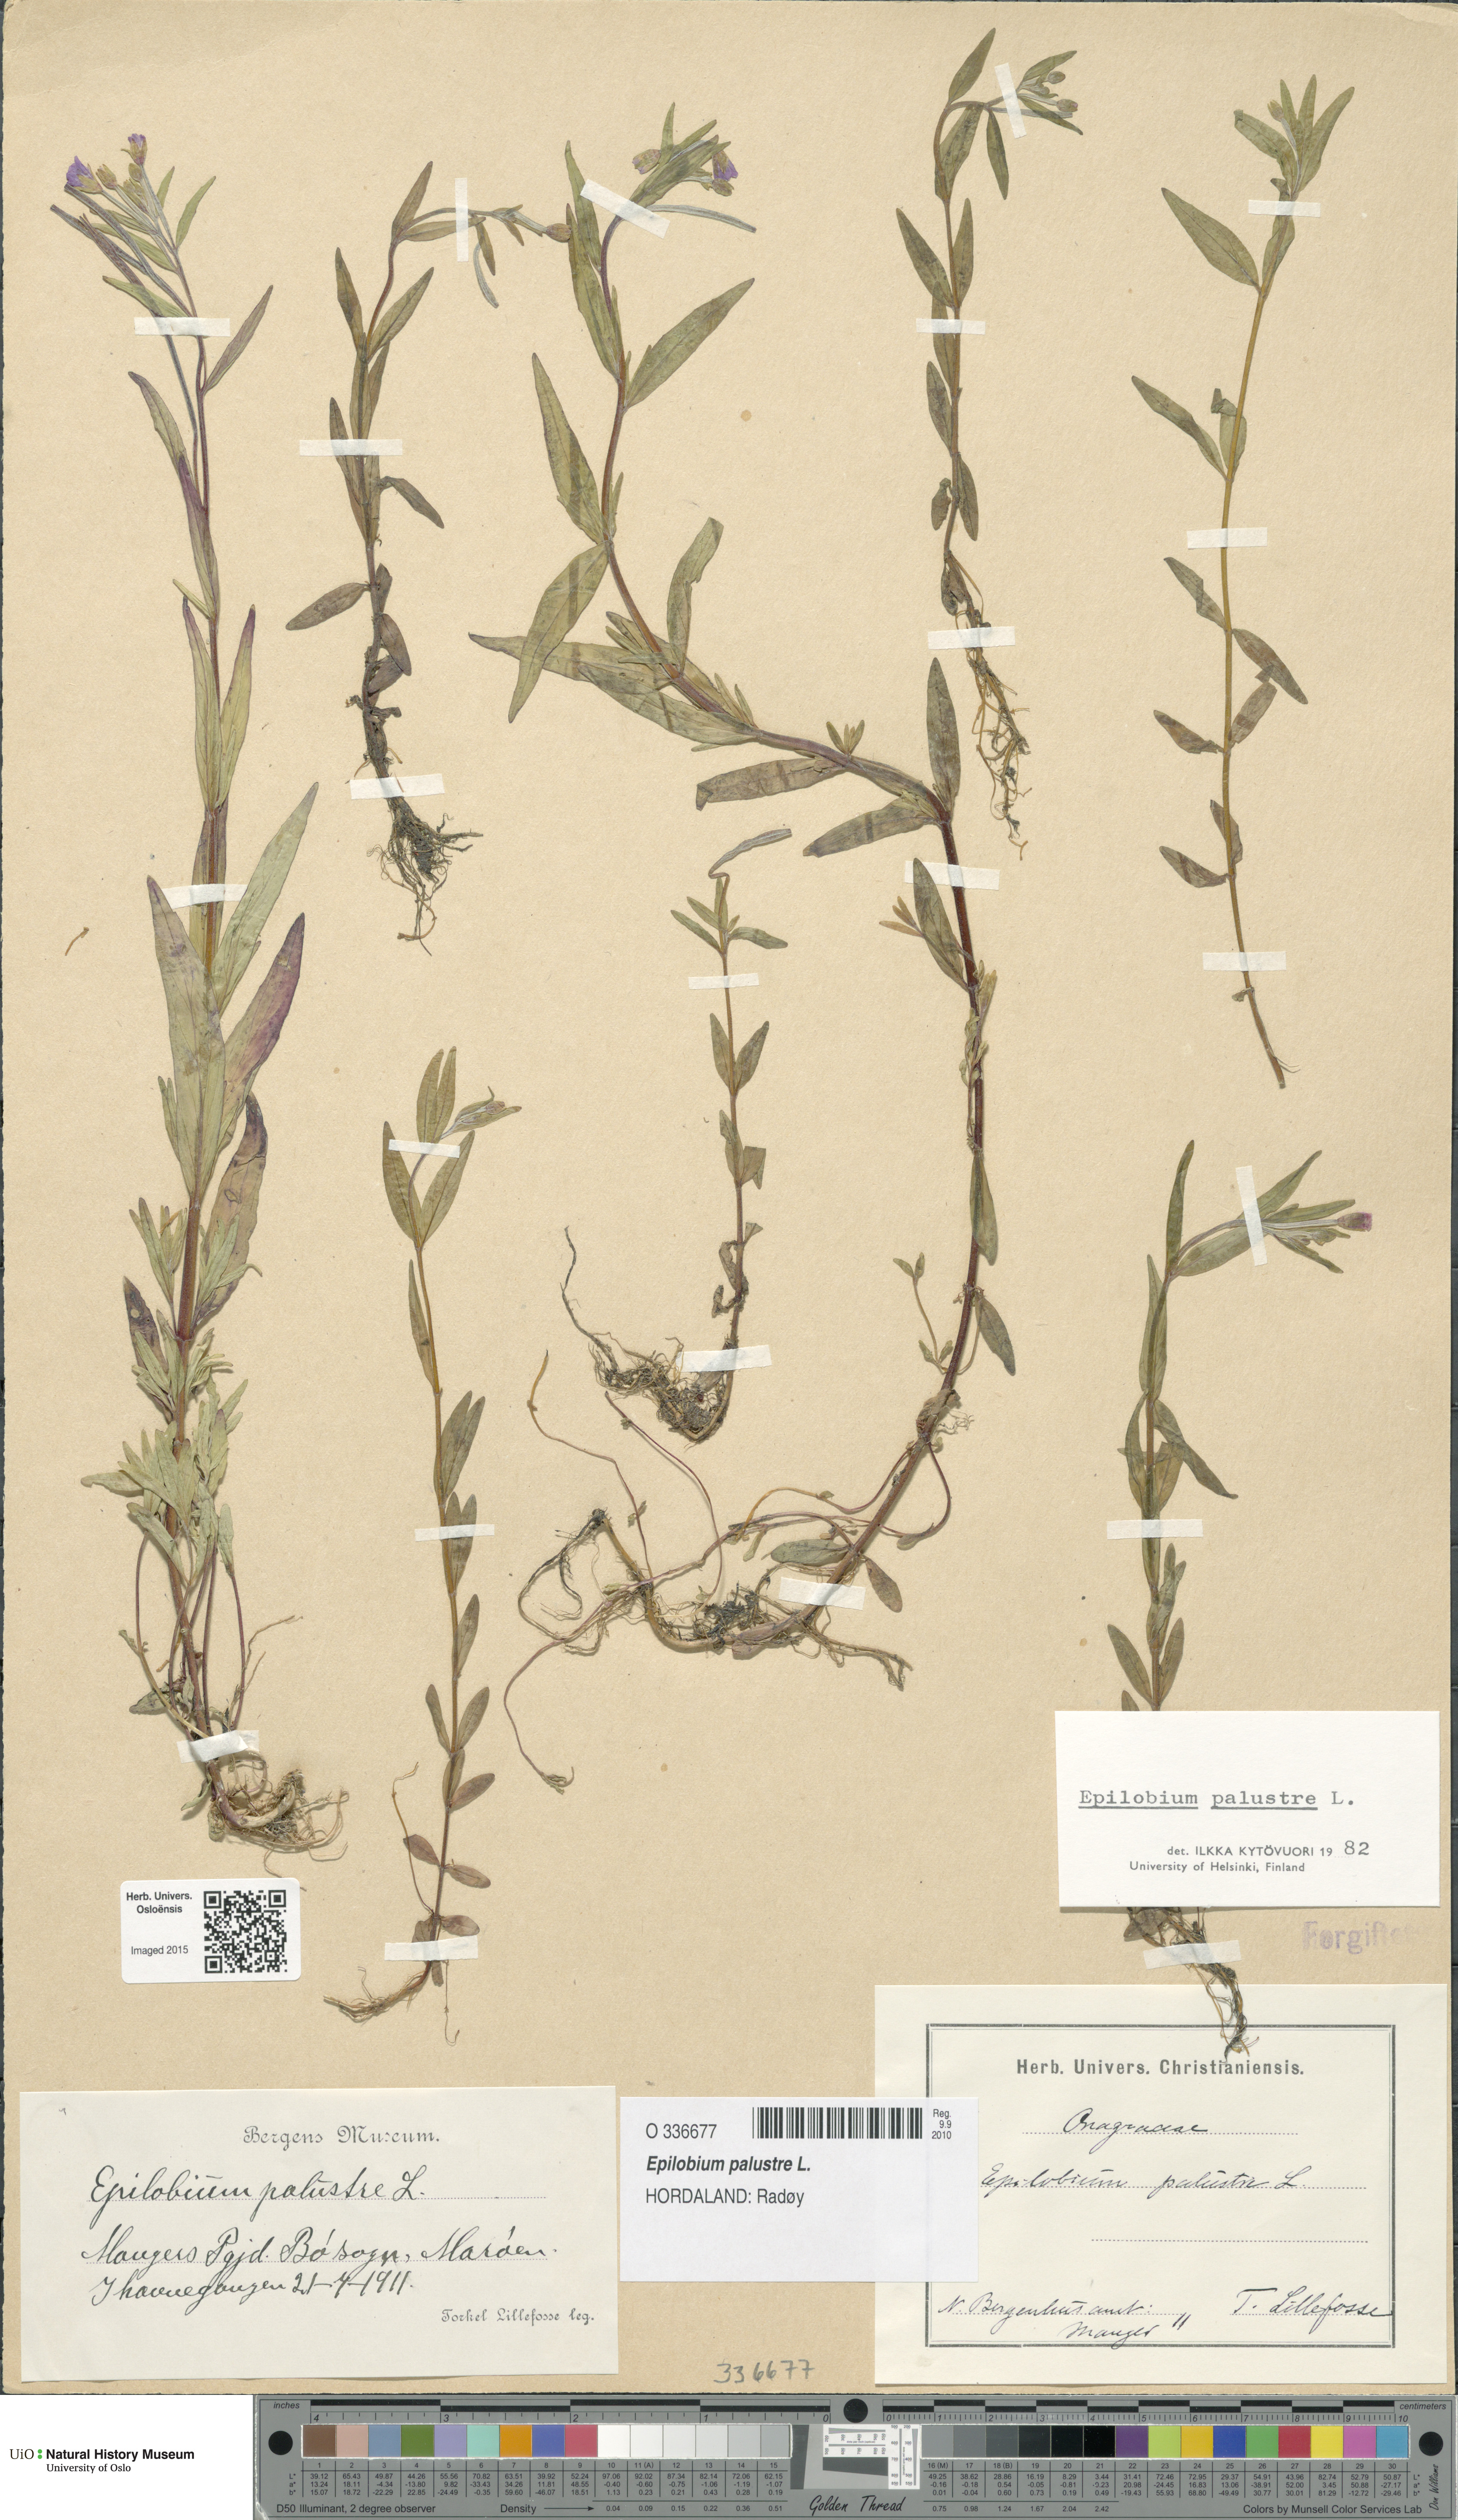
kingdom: Plantae
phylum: Tracheophyta
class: Magnoliopsida
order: Myrtales
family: Onagraceae
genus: Epilobium
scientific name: Epilobium palustre
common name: Marsh willowherb
